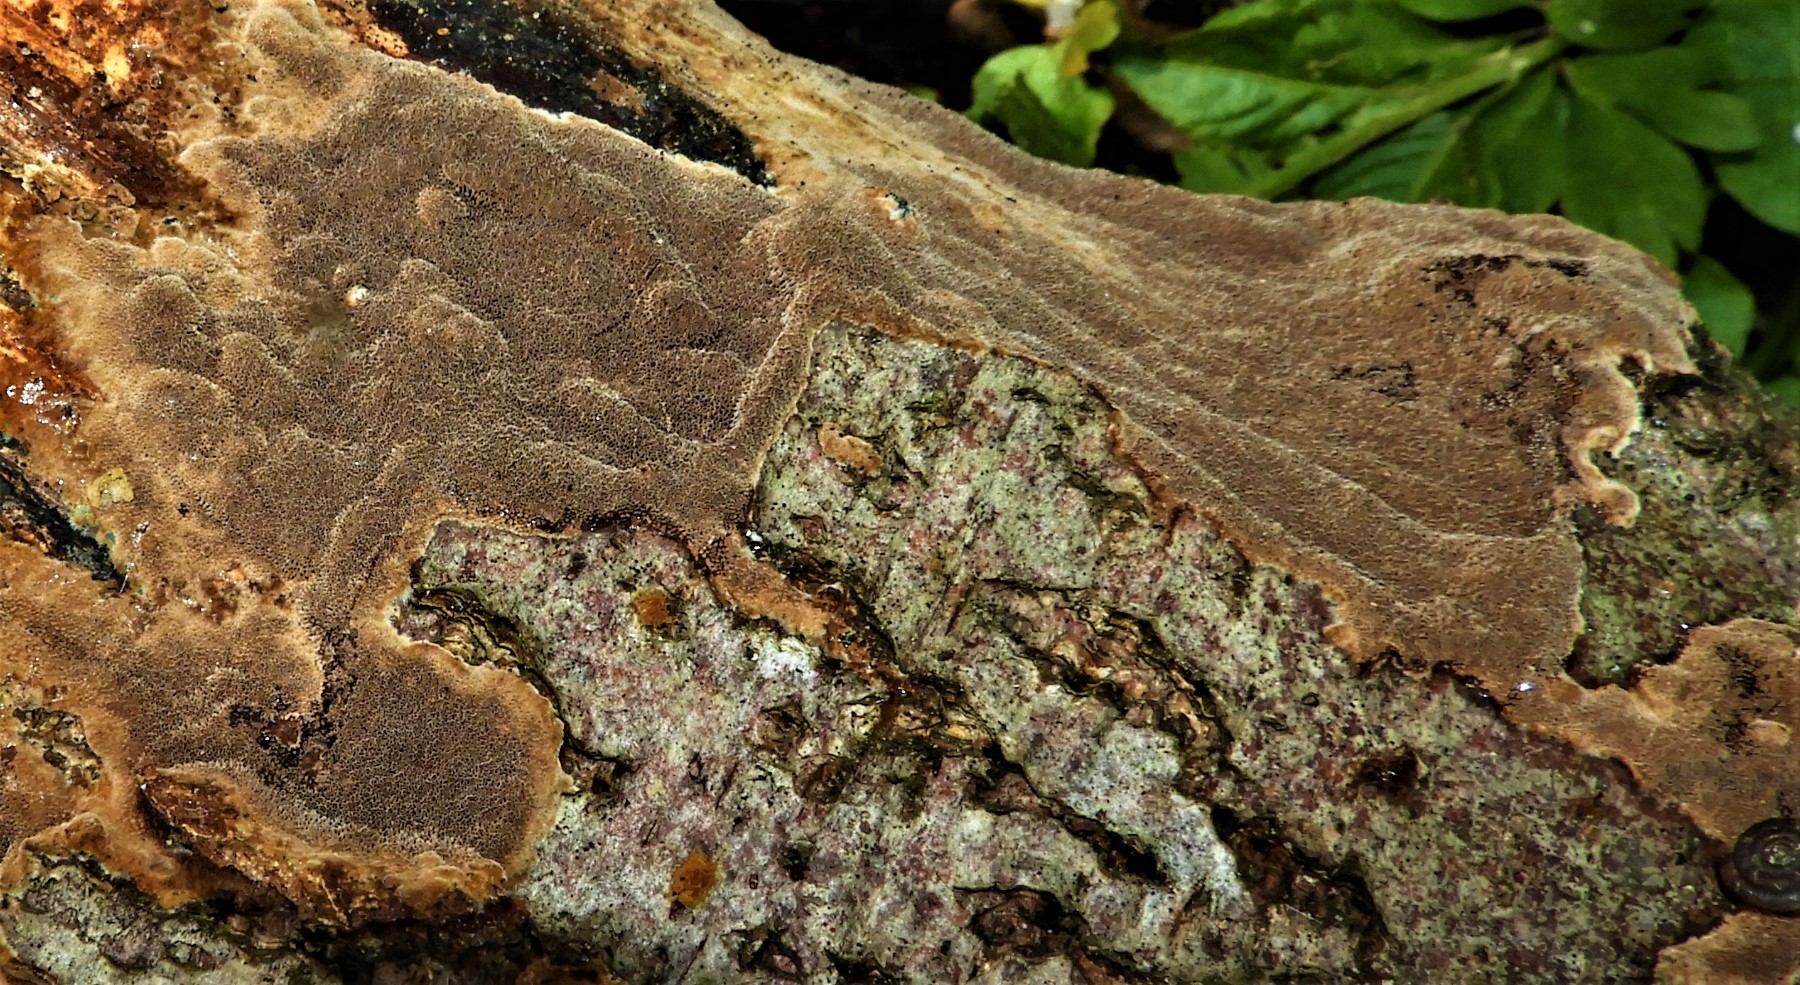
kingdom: Fungi
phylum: Basidiomycota
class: Agaricomycetes
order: Hymenochaetales
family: Hymenochaetaceae
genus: Fuscoporia
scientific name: Fuscoporia
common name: Ildporesvamp
